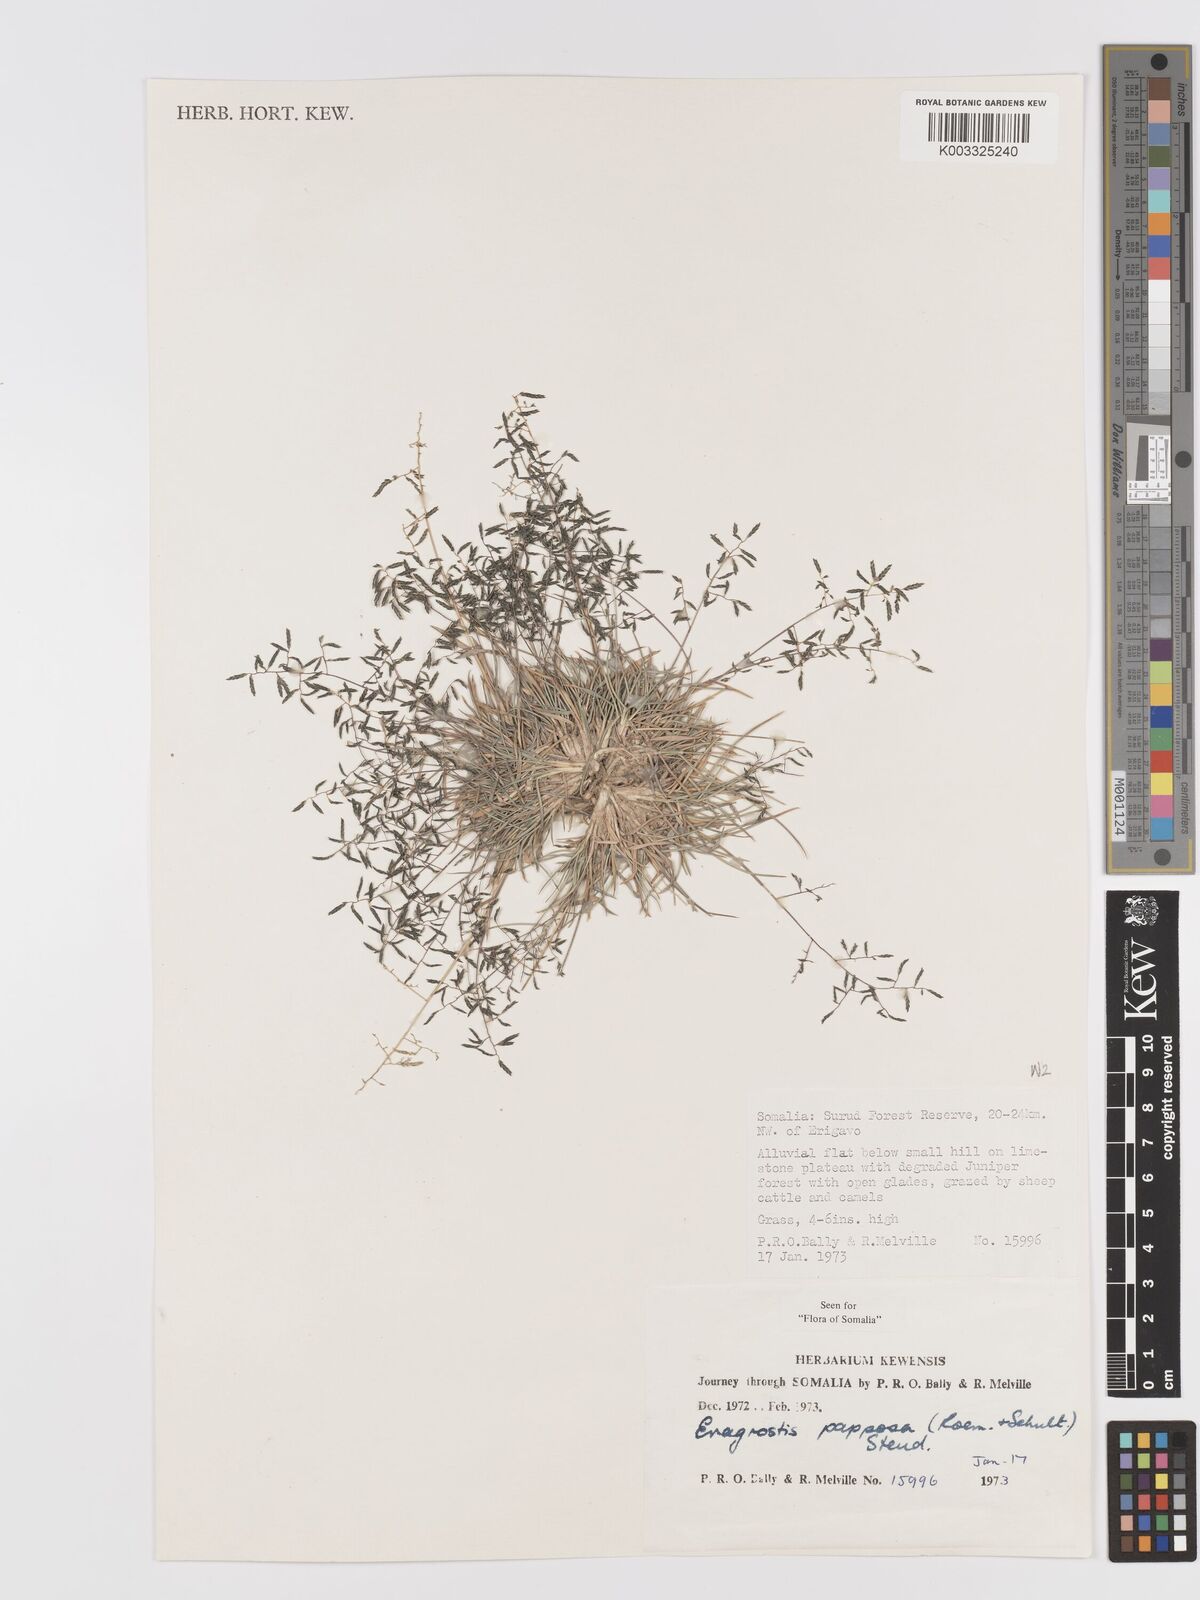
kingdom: Plantae
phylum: Tracheophyta
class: Liliopsida
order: Poales
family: Poaceae
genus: Eragrostis
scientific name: Eragrostis papposa
